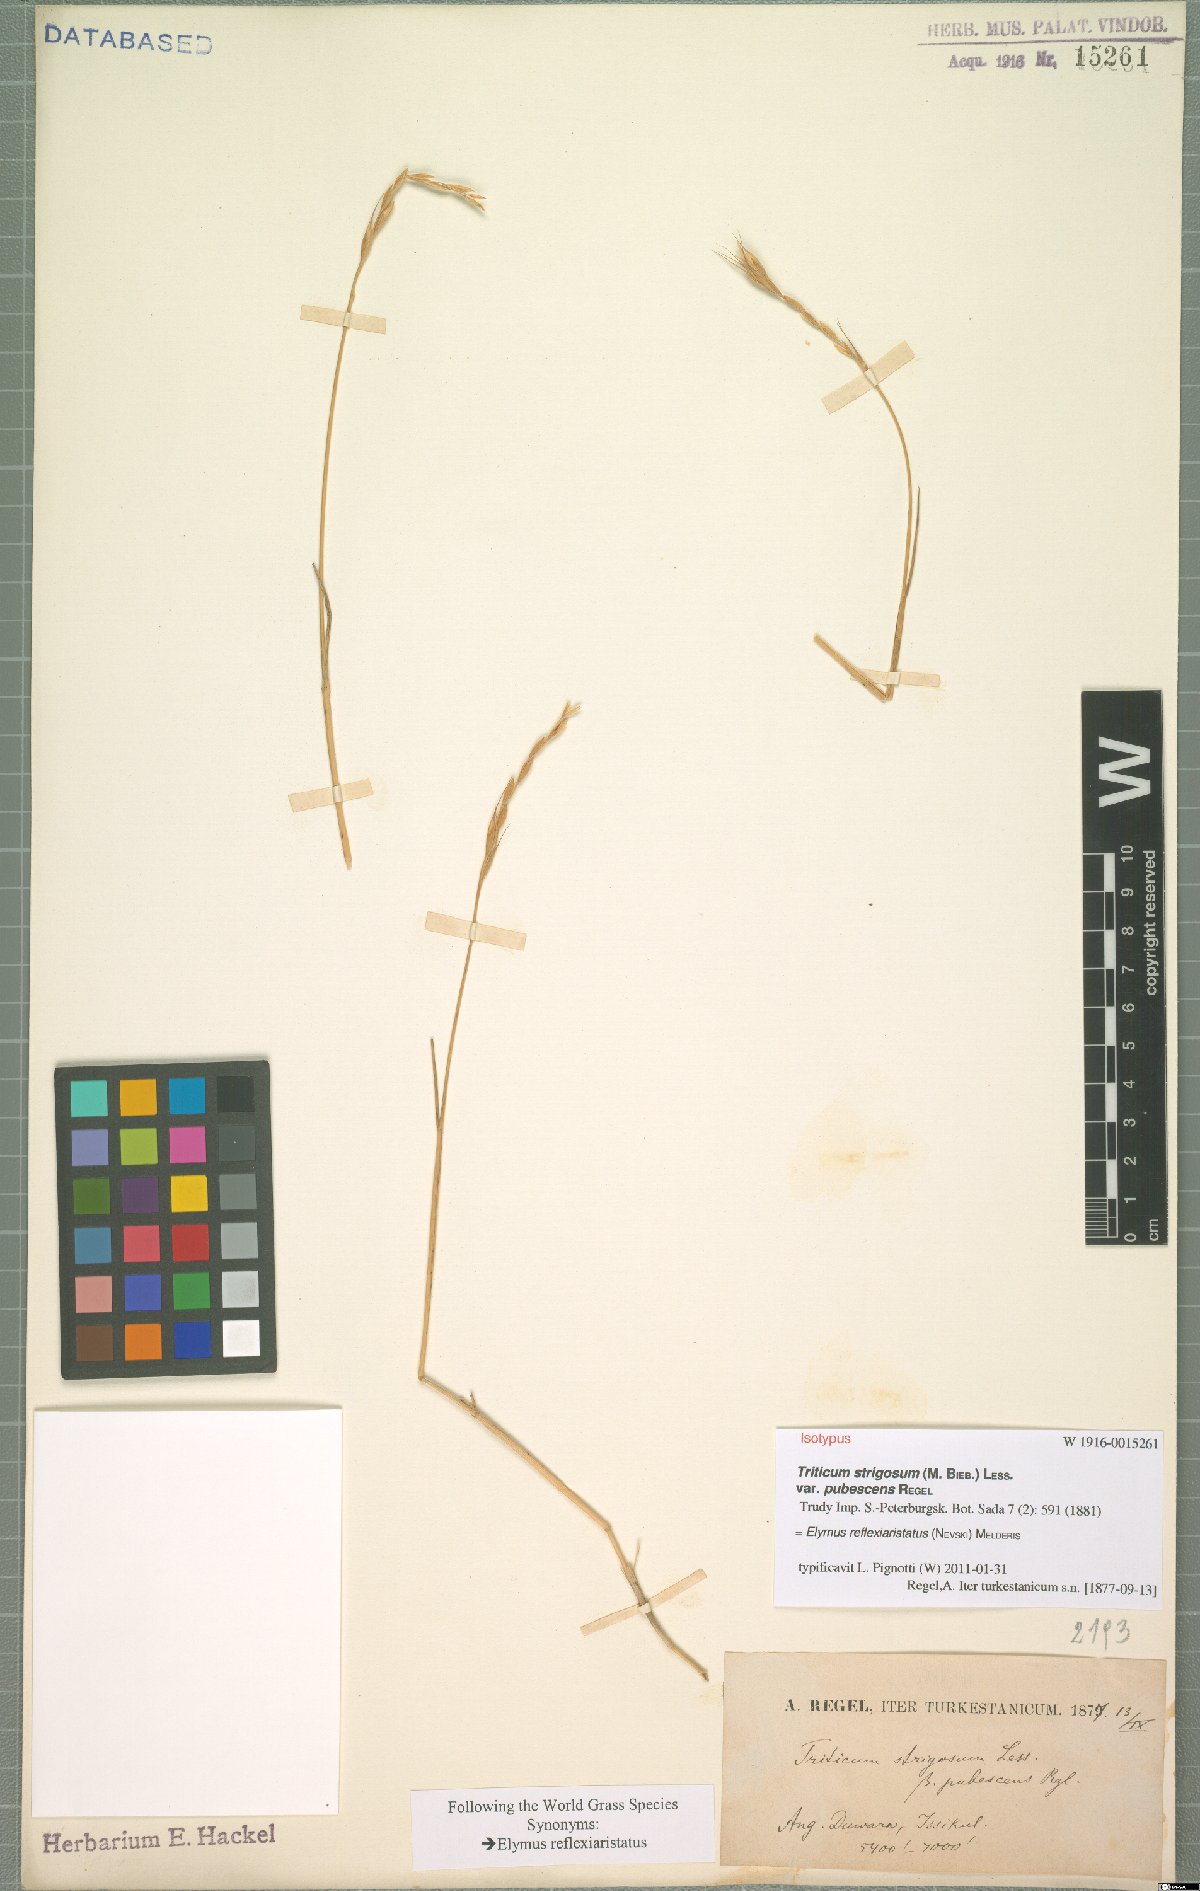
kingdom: Plantae
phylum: Tracheophyta
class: Liliopsida
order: Poales
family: Poaceae
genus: Pseudoroegneria
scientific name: Pseudoroegneria reflexiaristata
